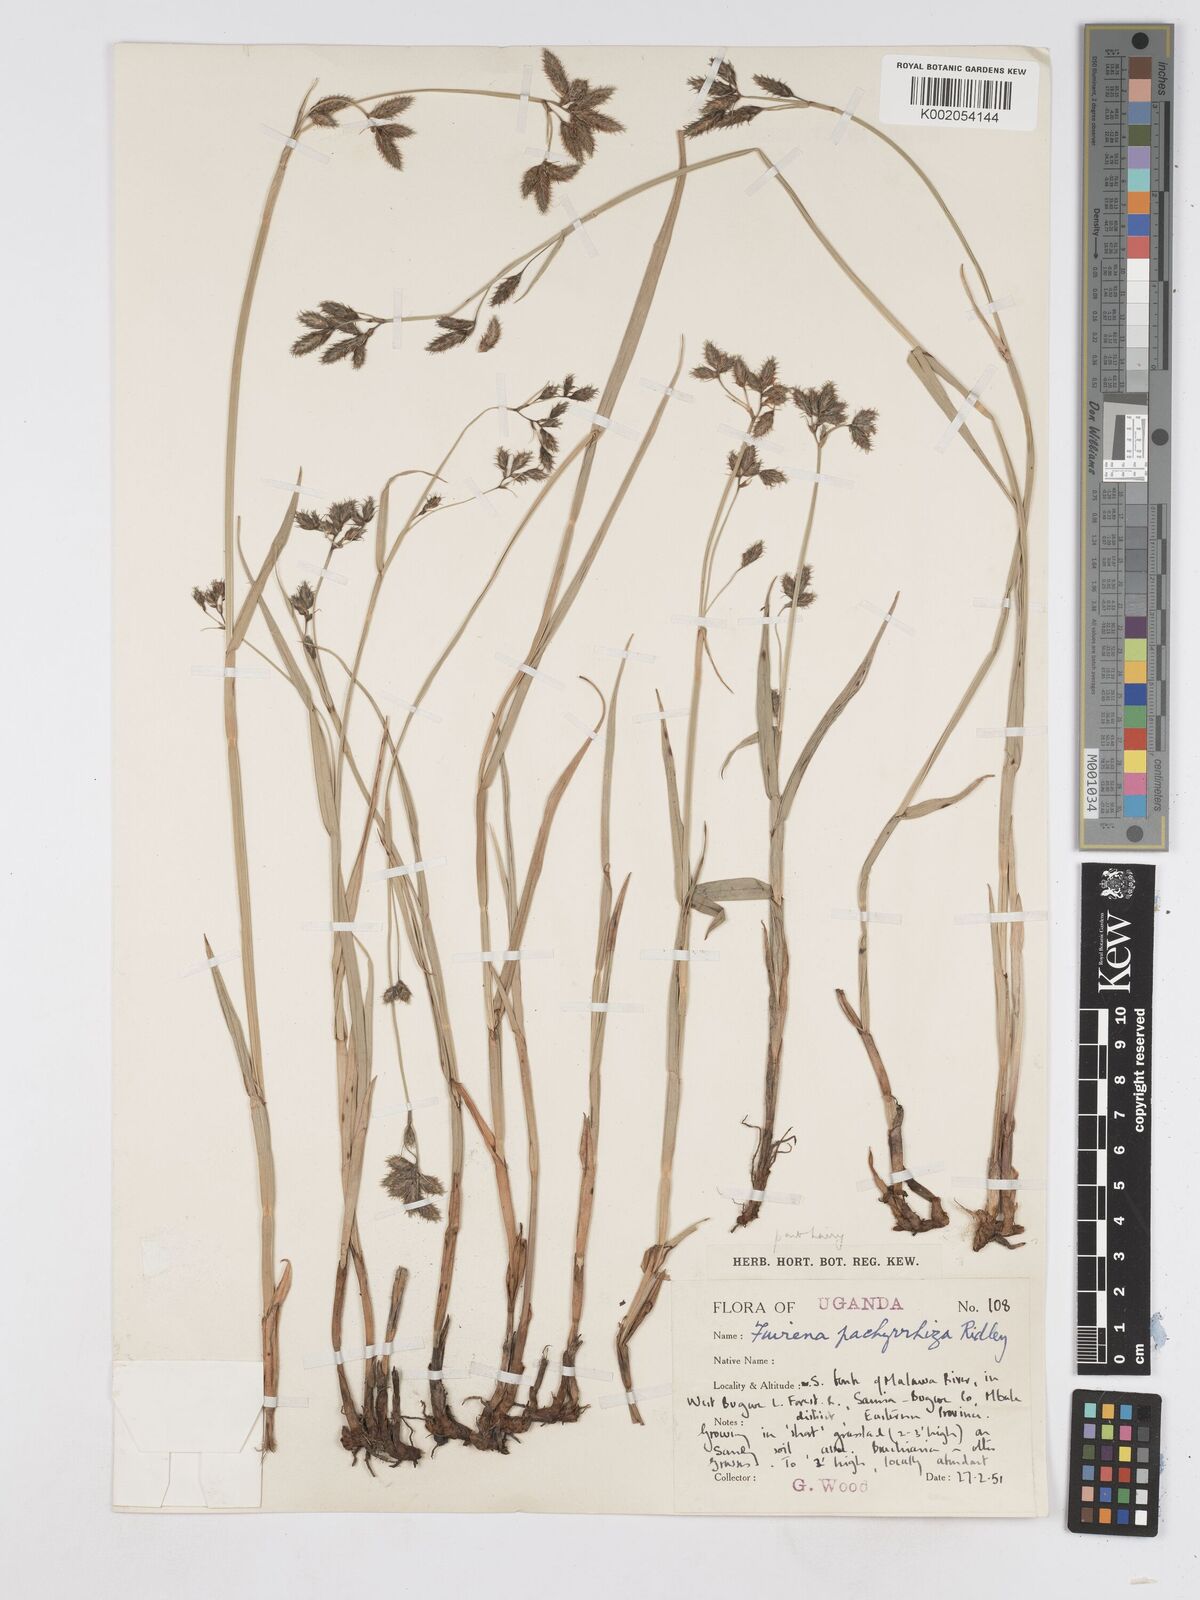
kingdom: Plantae
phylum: Tracheophyta
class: Liliopsida
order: Poales
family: Cyperaceae
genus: Fuirena
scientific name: Fuirena pachyrrhiza
